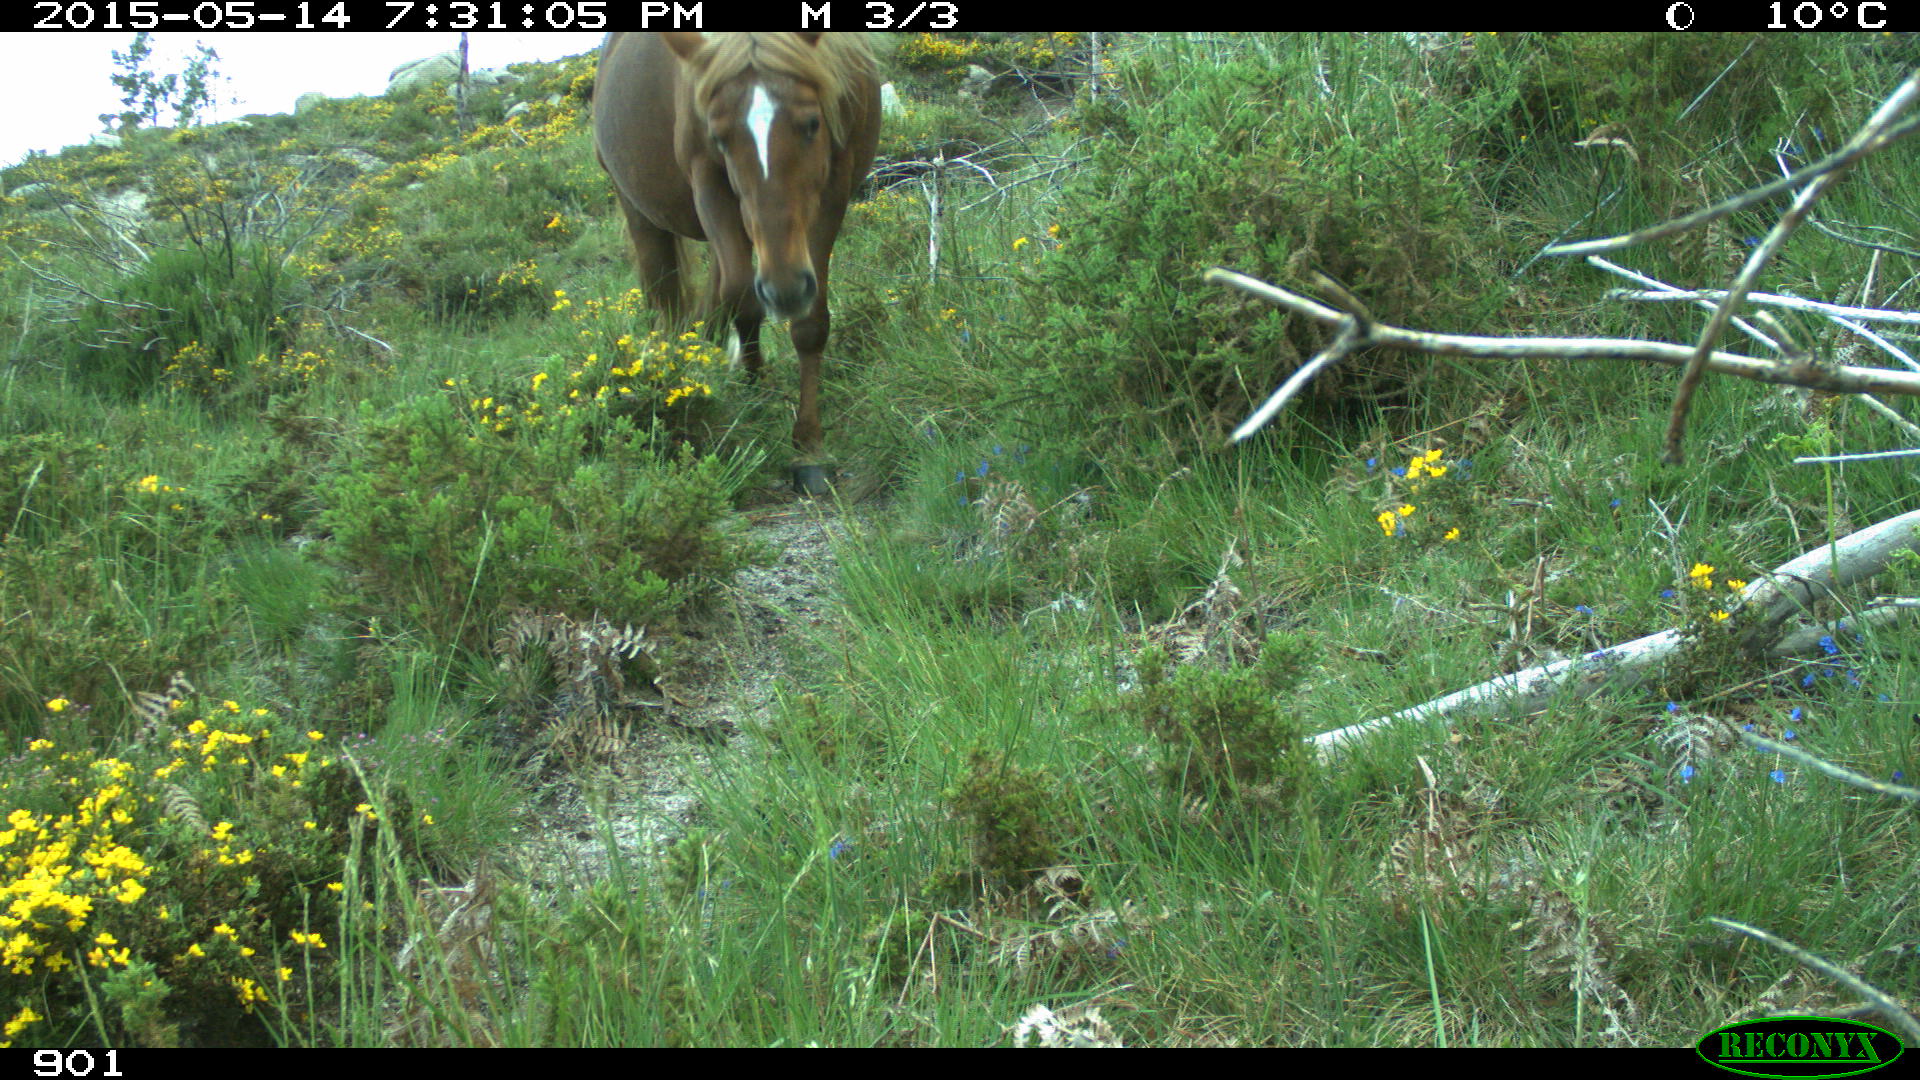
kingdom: Animalia
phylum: Chordata
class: Mammalia
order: Perissodactyla
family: Equidae
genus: Equus
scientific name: Equus caballus
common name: Horse
